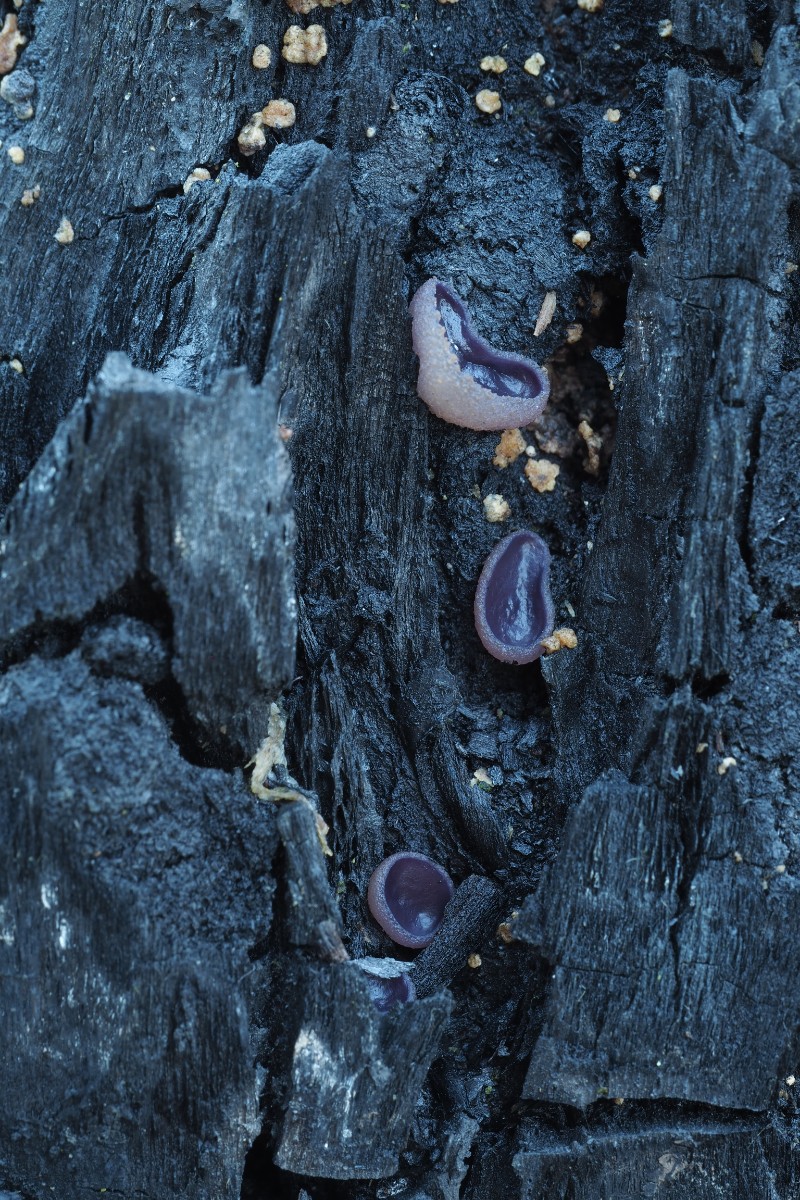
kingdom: Fungi
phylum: Ascomycota
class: Pezizomycetes
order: Pezizales
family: Pezizaceae
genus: Geoscypha
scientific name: Geoscypha tenacella
